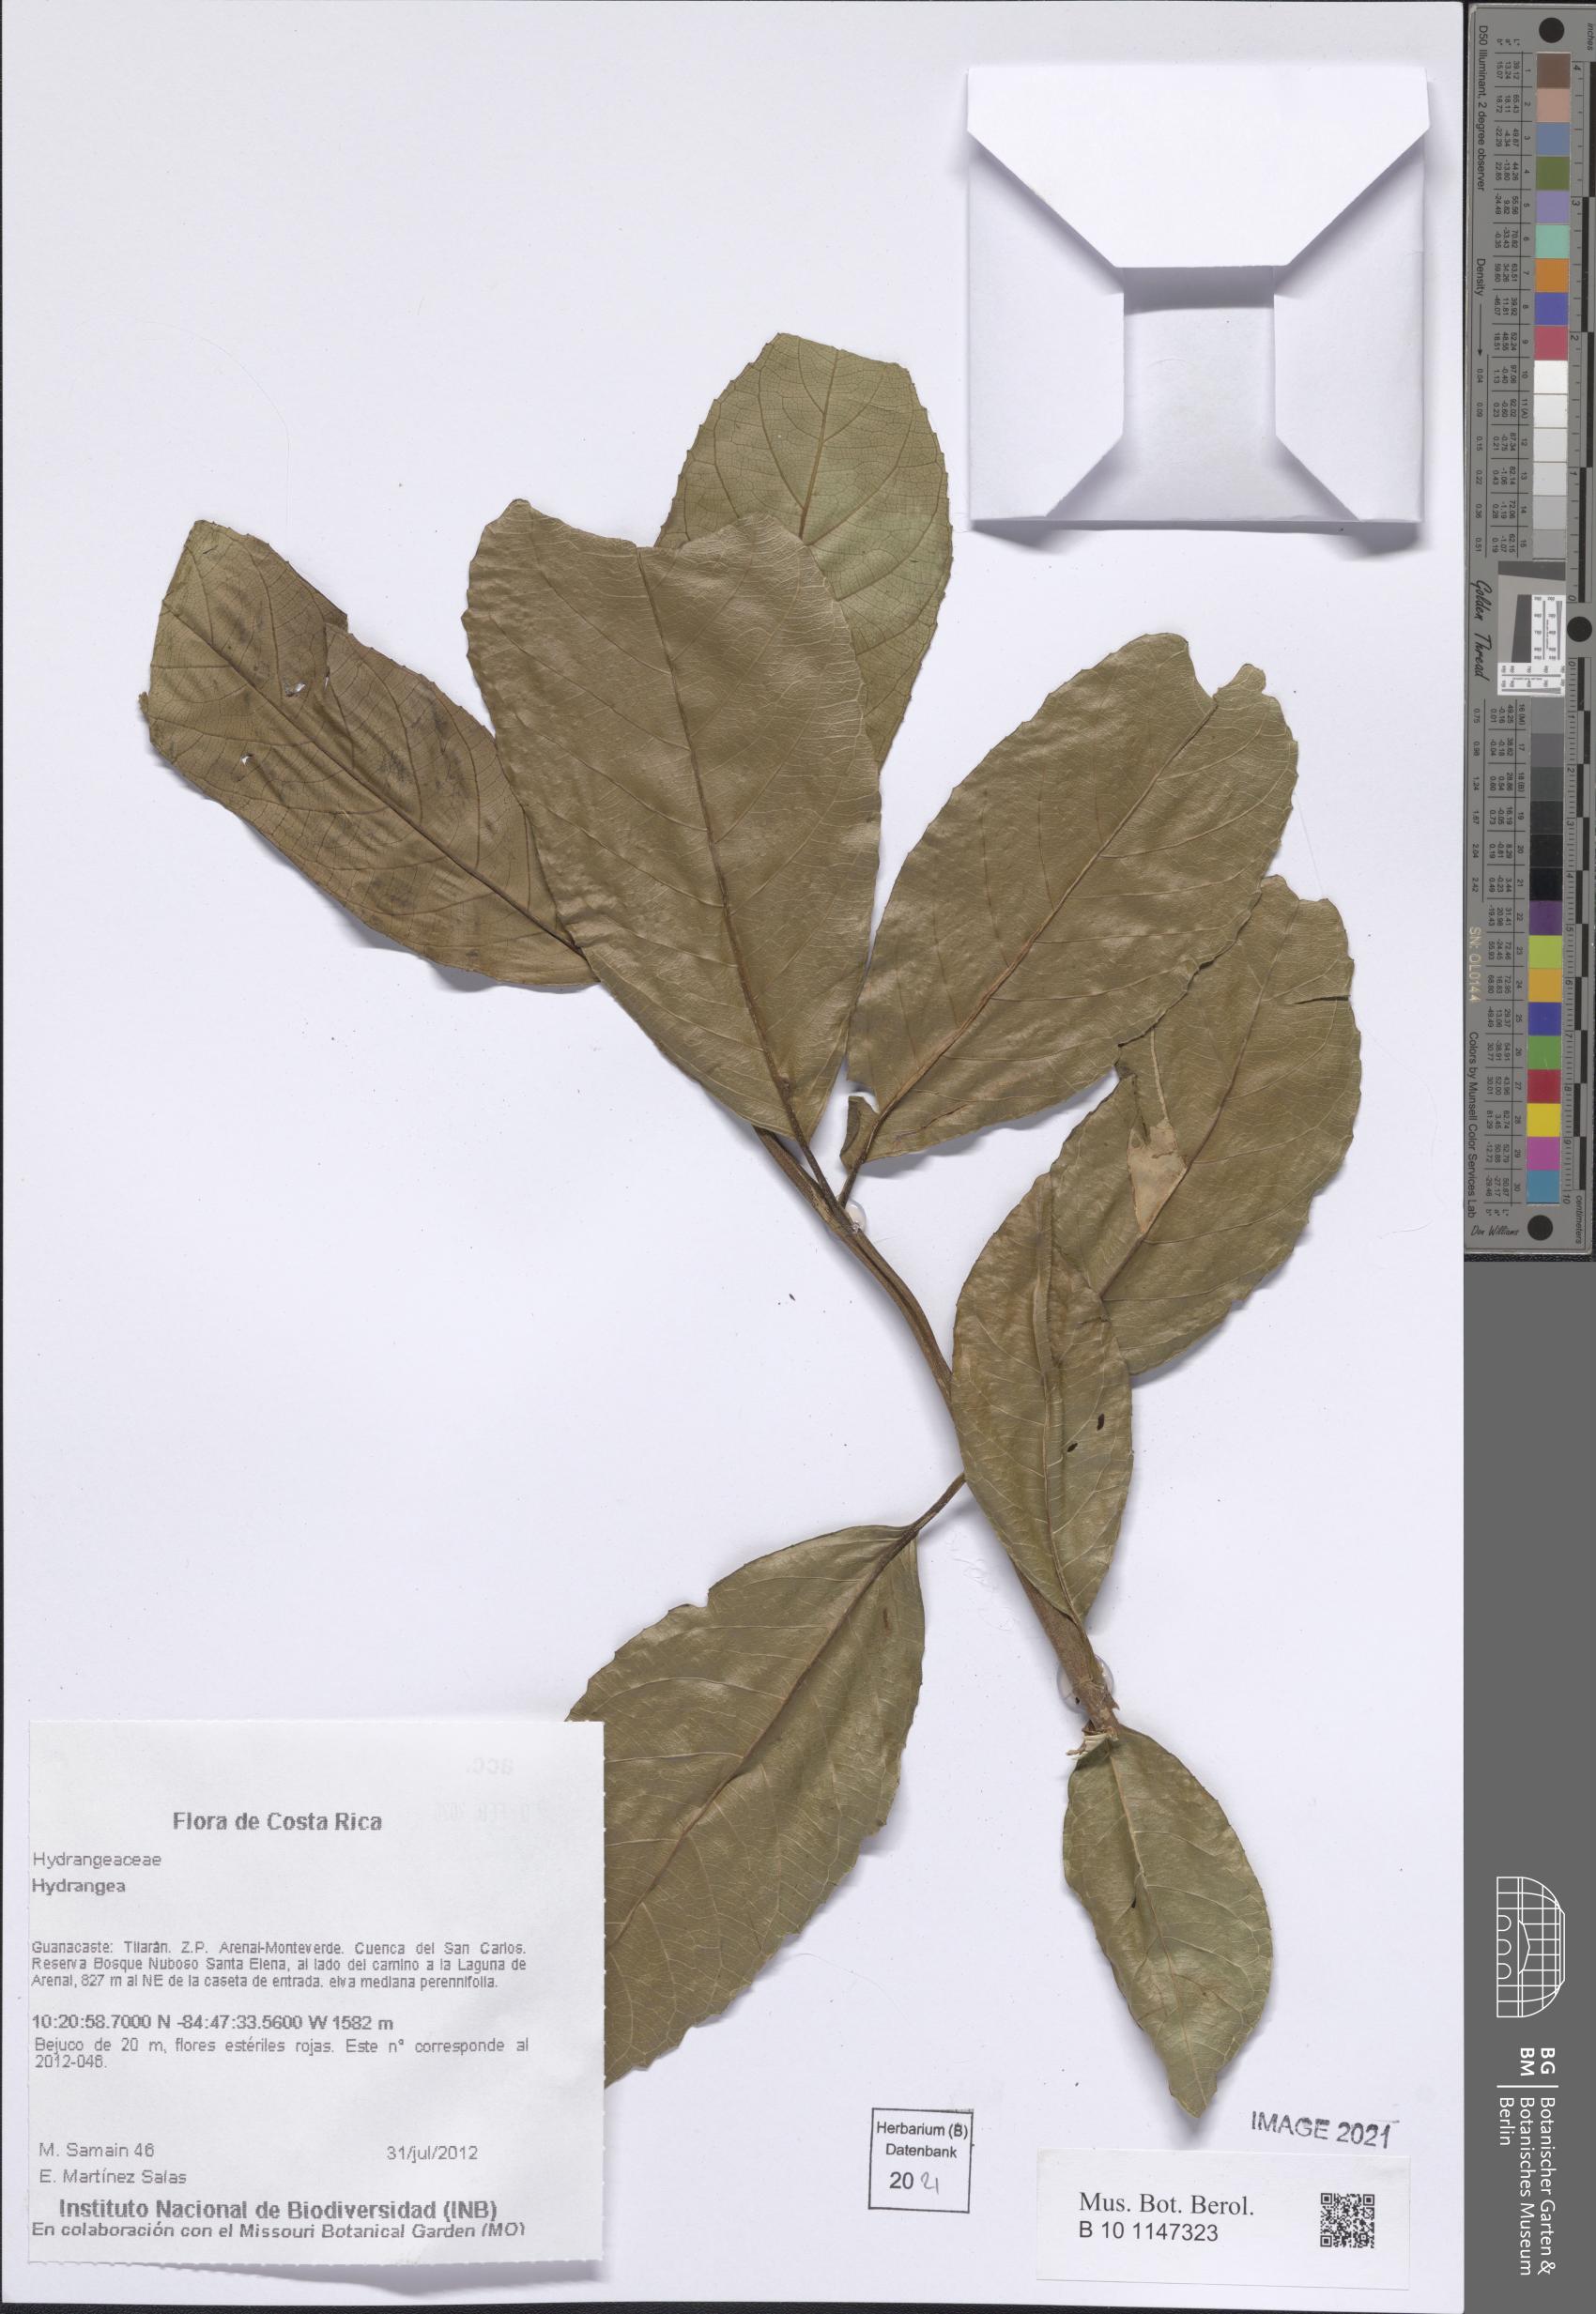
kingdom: Plantae
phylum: Tracheophyta
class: Magnoliopsida
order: Cornales
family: Hydrangeaceae
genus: Hydrangea
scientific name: Hydrangea
